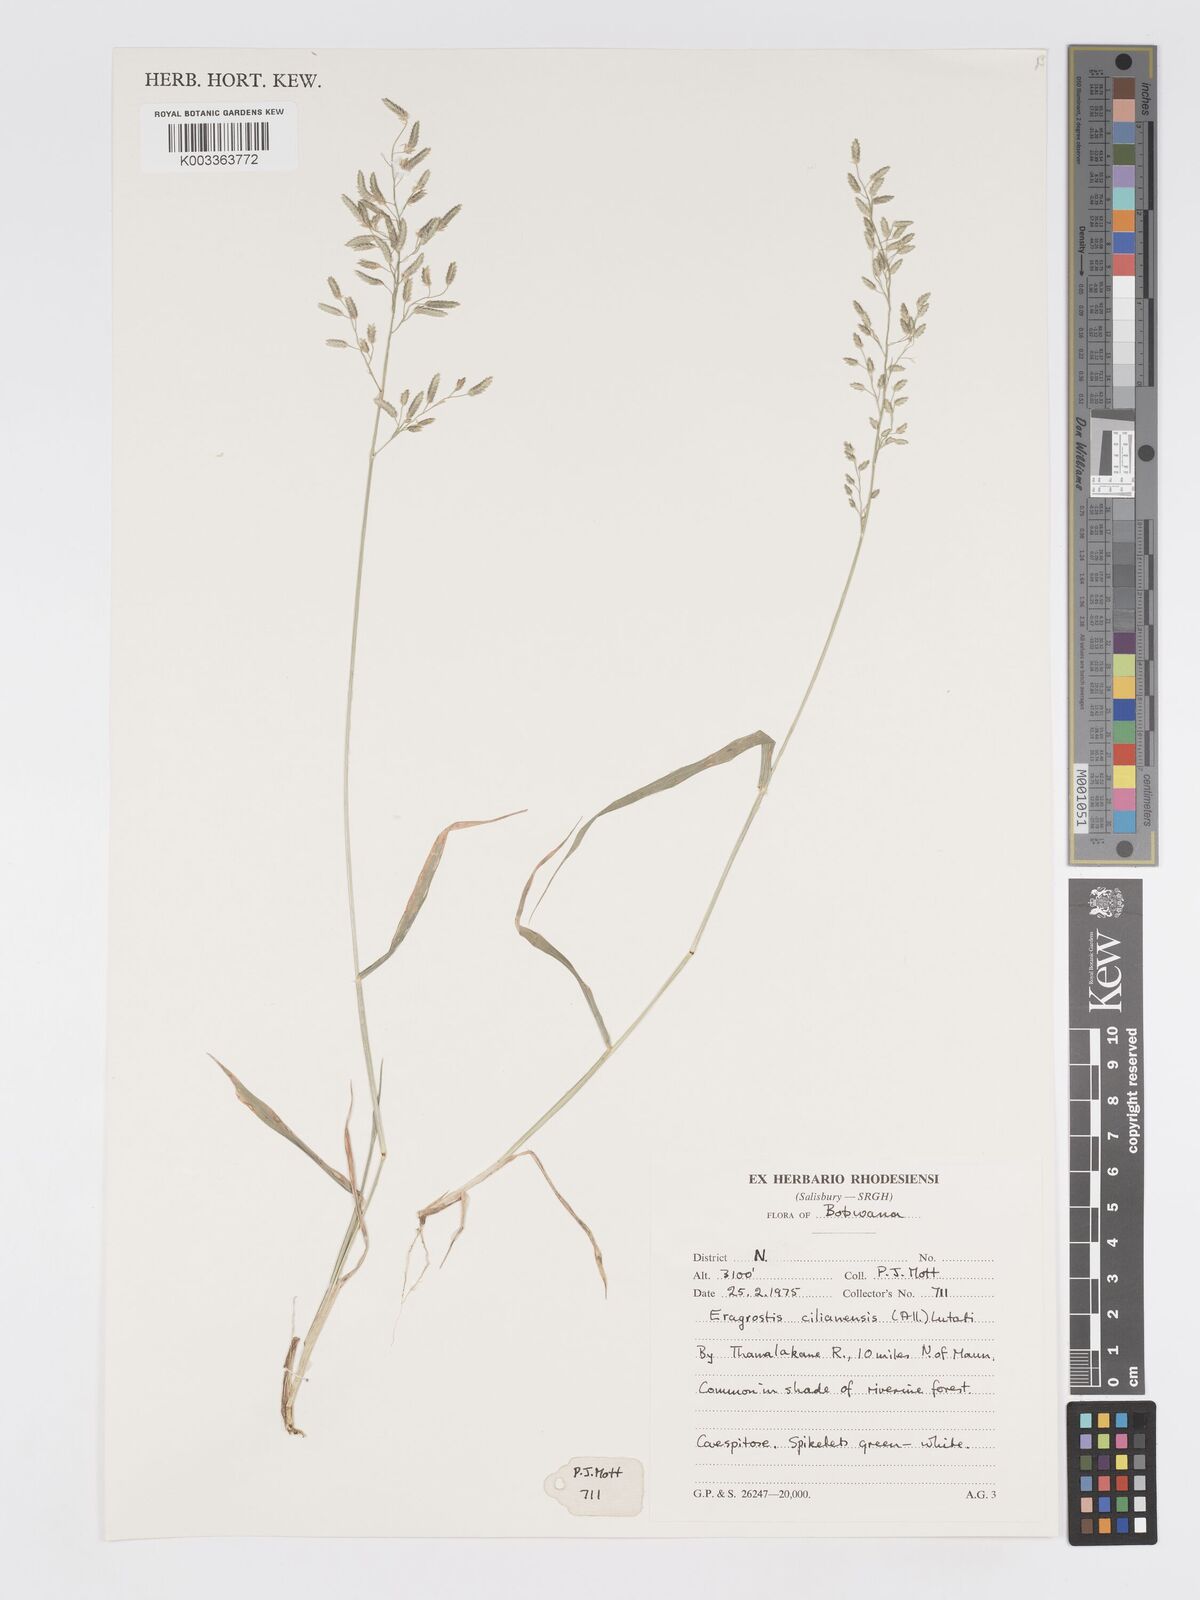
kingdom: Plantae
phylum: Tracheophyta
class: Liliopsida
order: Poales
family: Poaceae
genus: Eragrostis
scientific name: Eragrostis cilianensis
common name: Stinkgrass
